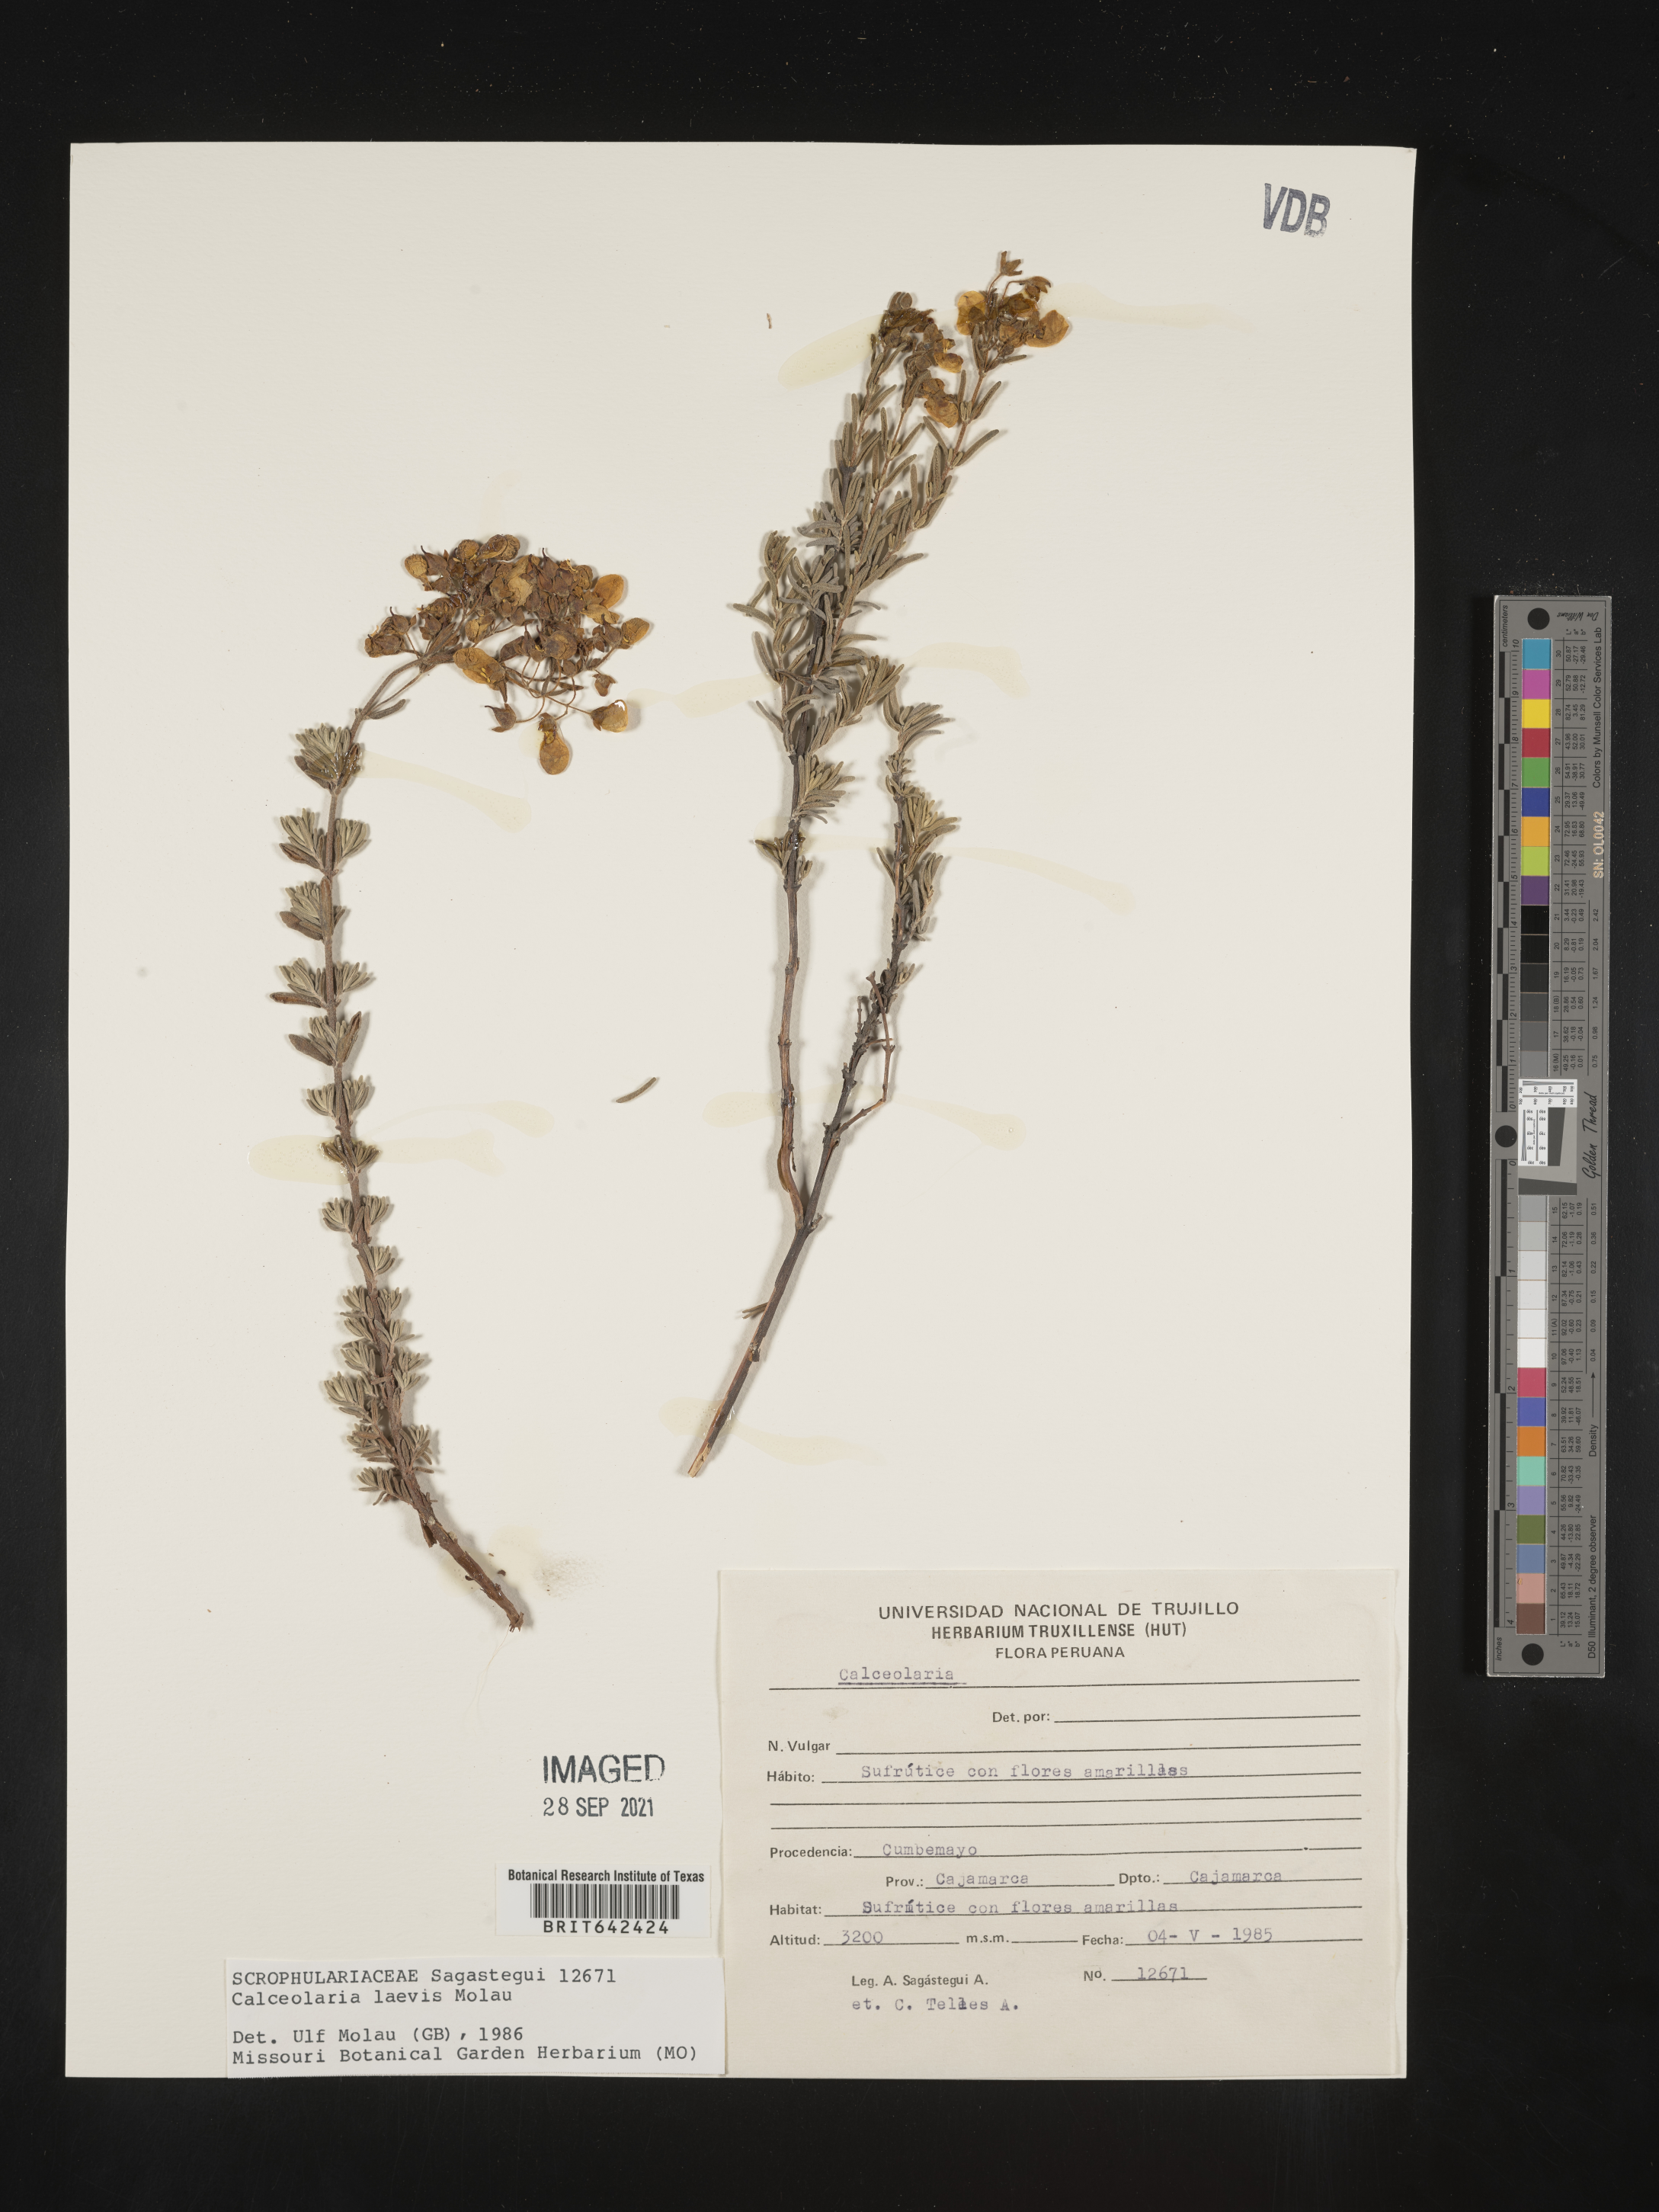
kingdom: Plantae
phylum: Tracheophyta
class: Magnoliopsida
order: Lamiales
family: Calceolariaceae
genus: Calceolaria
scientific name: Calceolaria laevis
